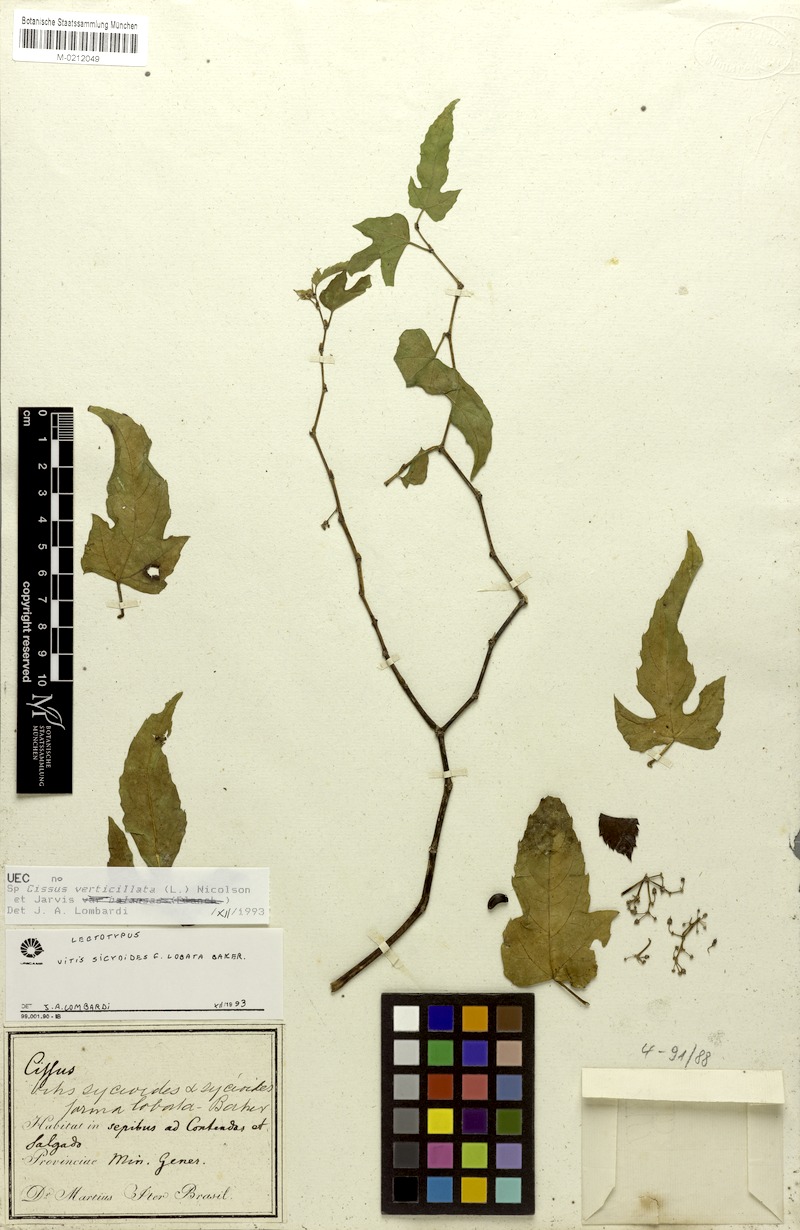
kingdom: Plantae
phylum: Tracheophyta
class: Magnoliopsida
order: Vitales
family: Vitaceae
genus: Cissus
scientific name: Cissus verticillata
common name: Princess vine
